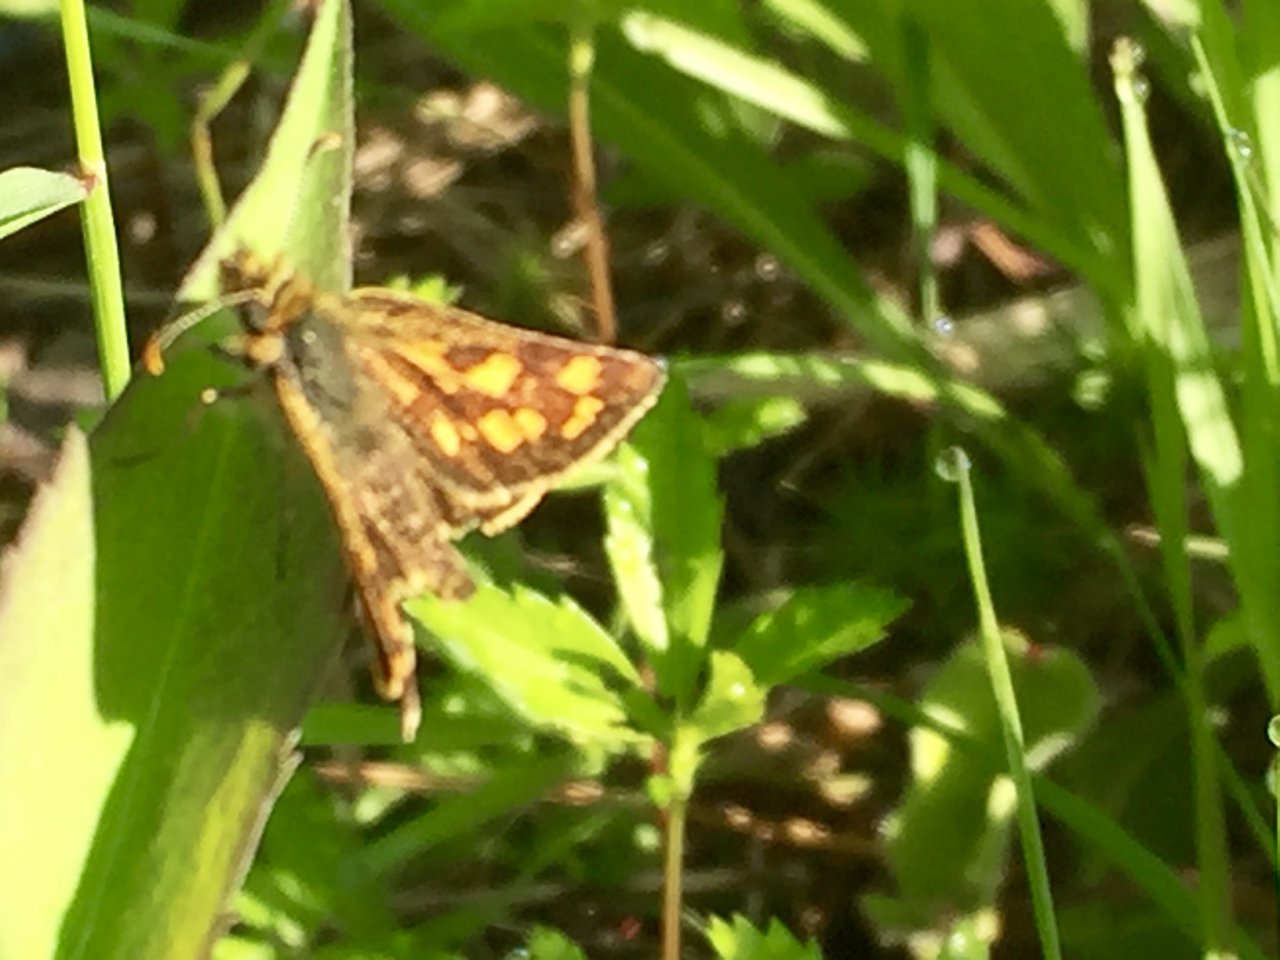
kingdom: Animalia
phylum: Arthropoda
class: Insecta
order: Lepidoptera
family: Hesperiidae
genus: Lon
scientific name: Lon hobomok
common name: Hobomok Skipper
